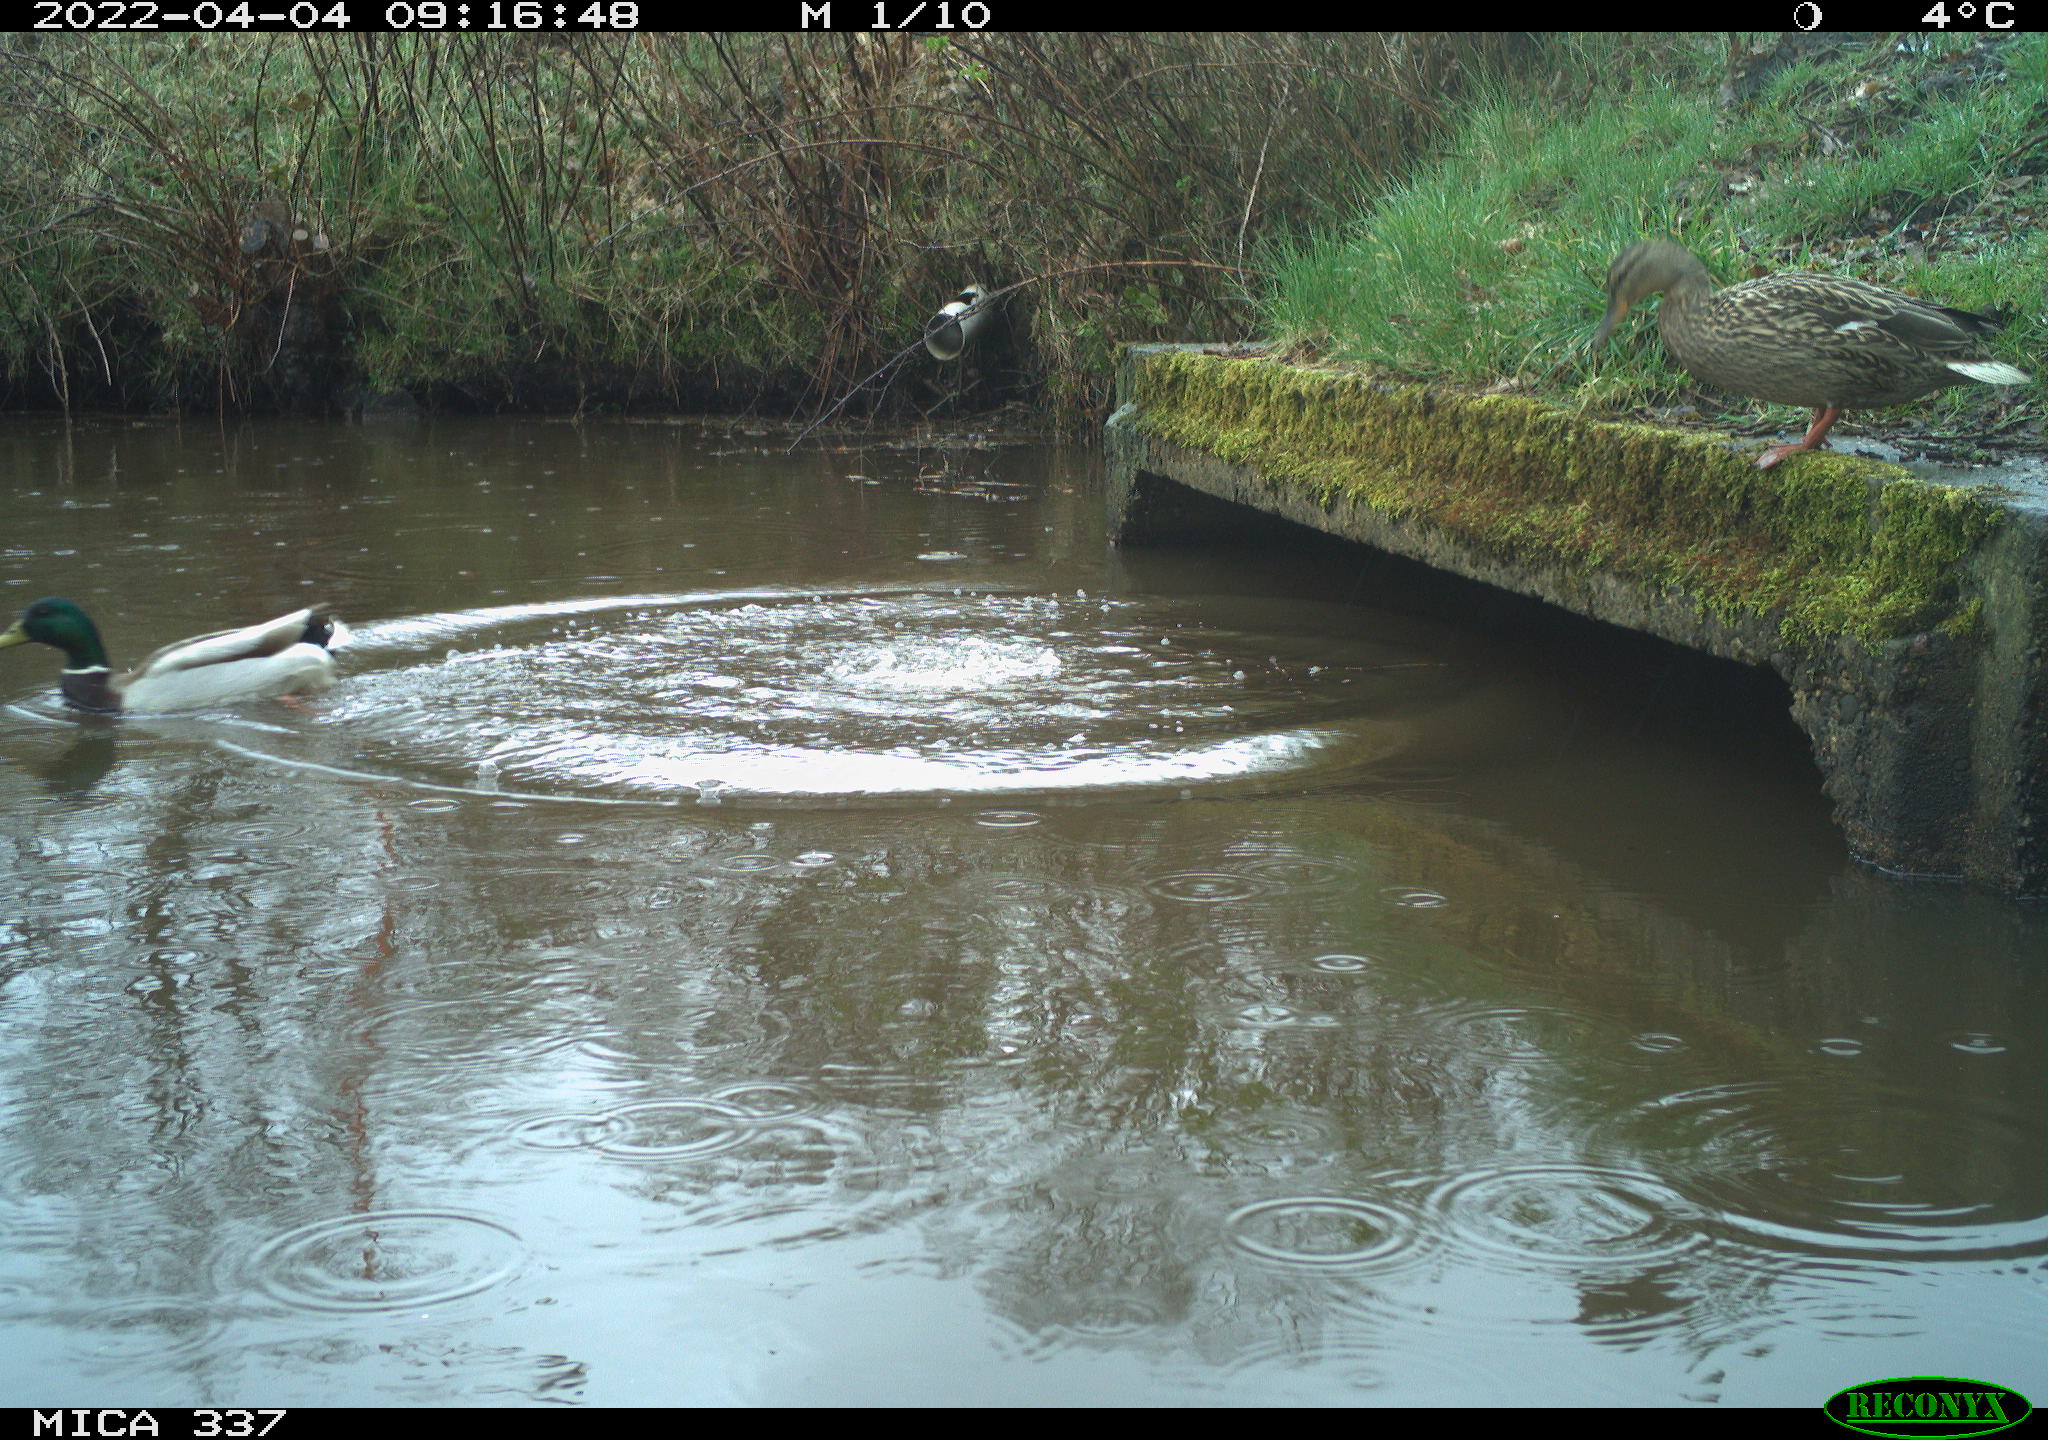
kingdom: Animalia
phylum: Chordata
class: Aves
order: Anseriformes
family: Anatidae
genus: Anas
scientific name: Anas platyrhynchos
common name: Mallard
